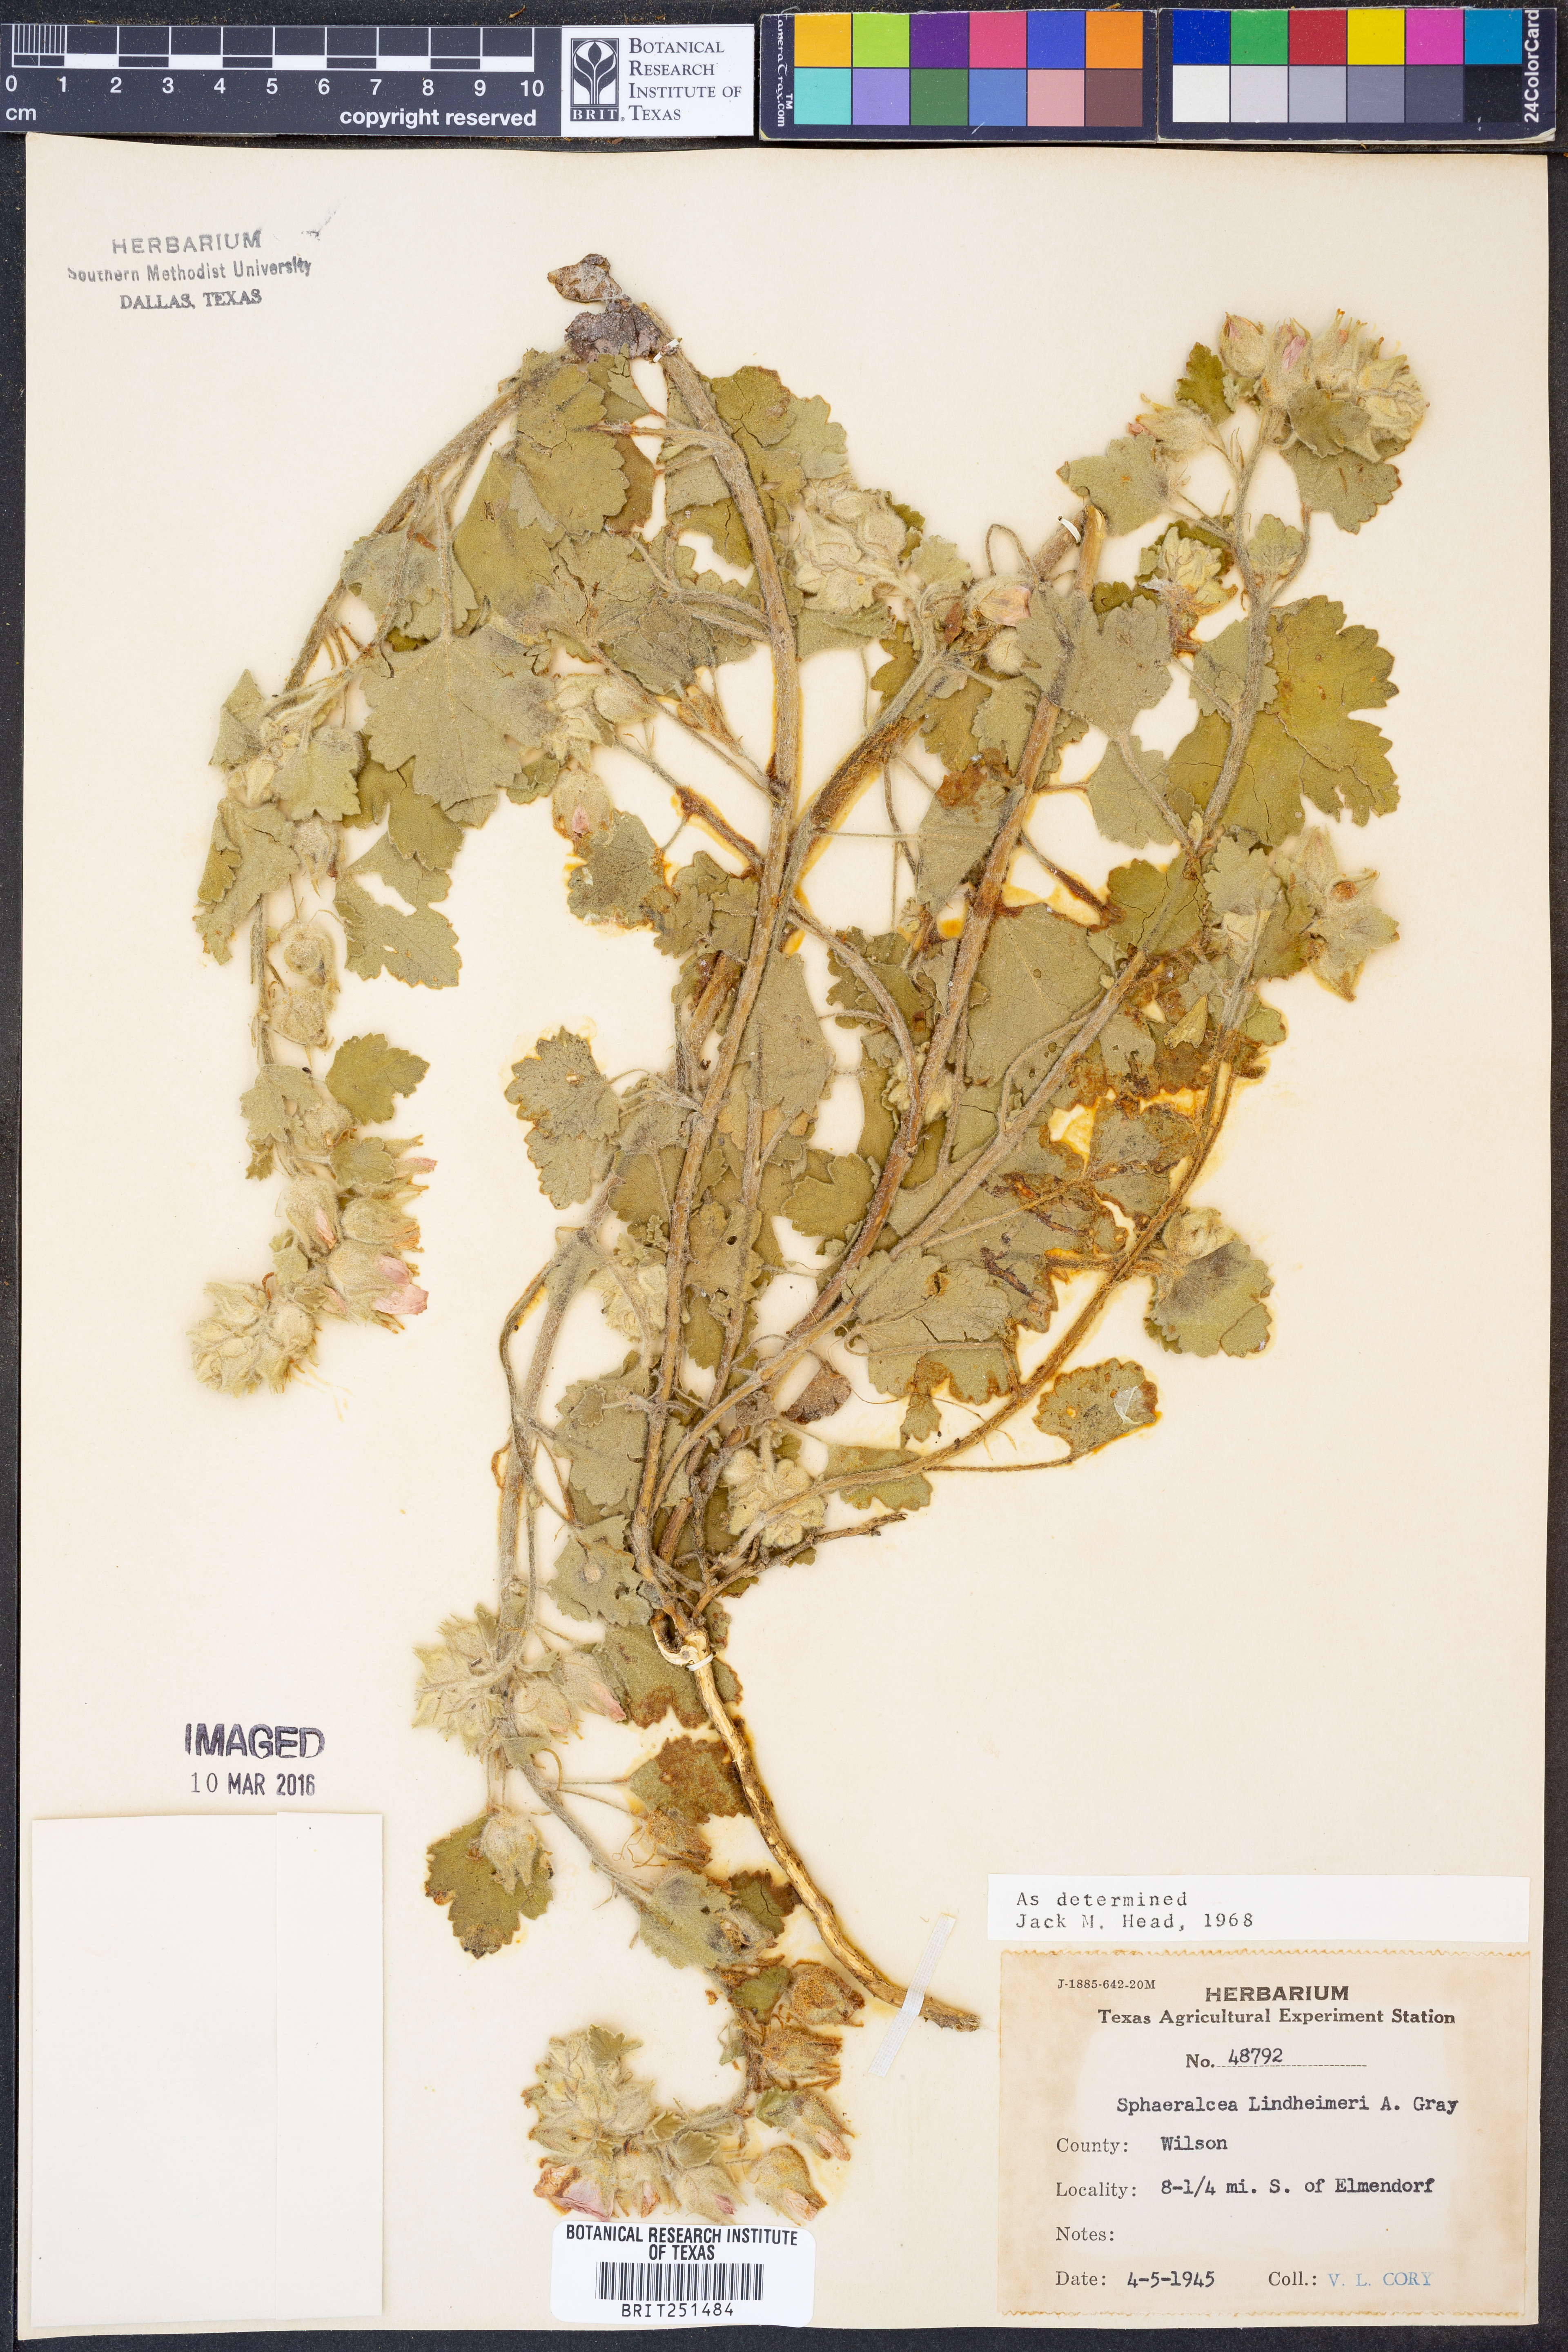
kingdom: Plantae
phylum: Tracheophyta
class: Magnoliopsida
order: Malvales
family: Malvaceae
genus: Sphaeralcea
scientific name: Sphaeralcea lindheimeri
